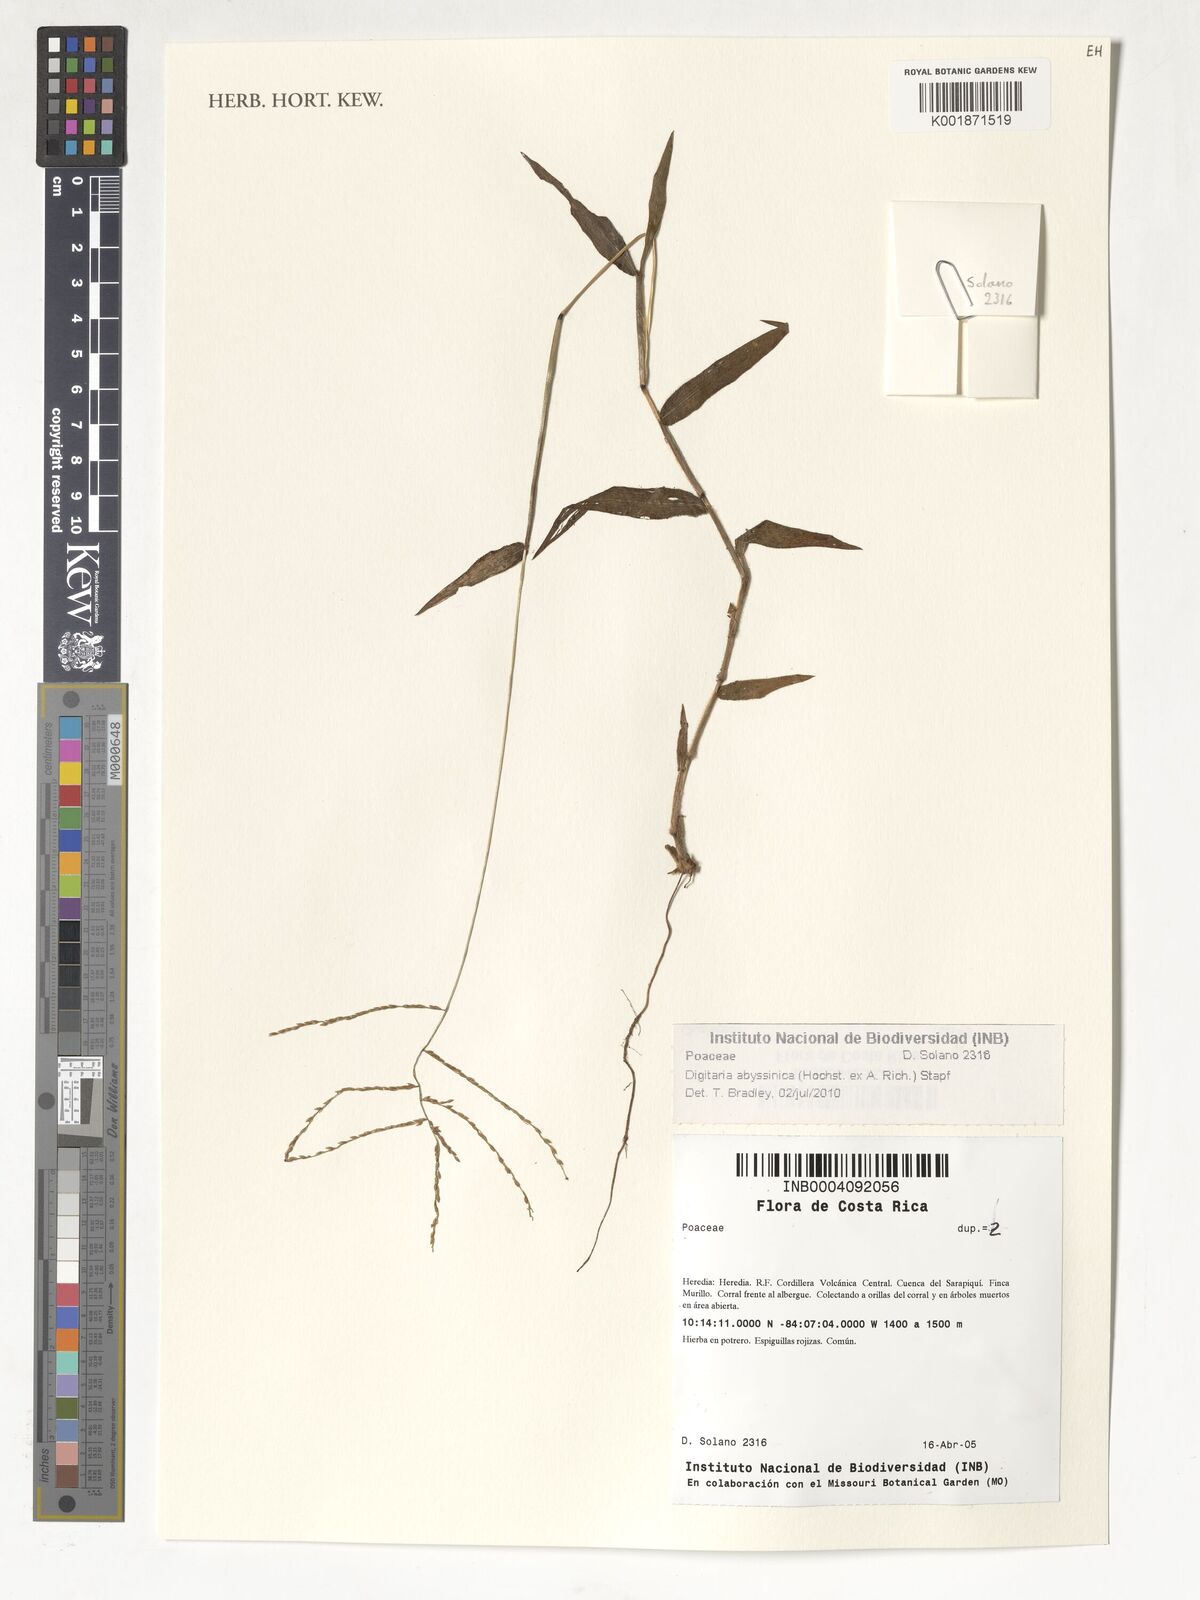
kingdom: Plantae
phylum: Tracheophyta
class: Liliopsida
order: Poales
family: Poaceae
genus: Digitaria
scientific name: Digitaria abyssinica
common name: African couchgrass
